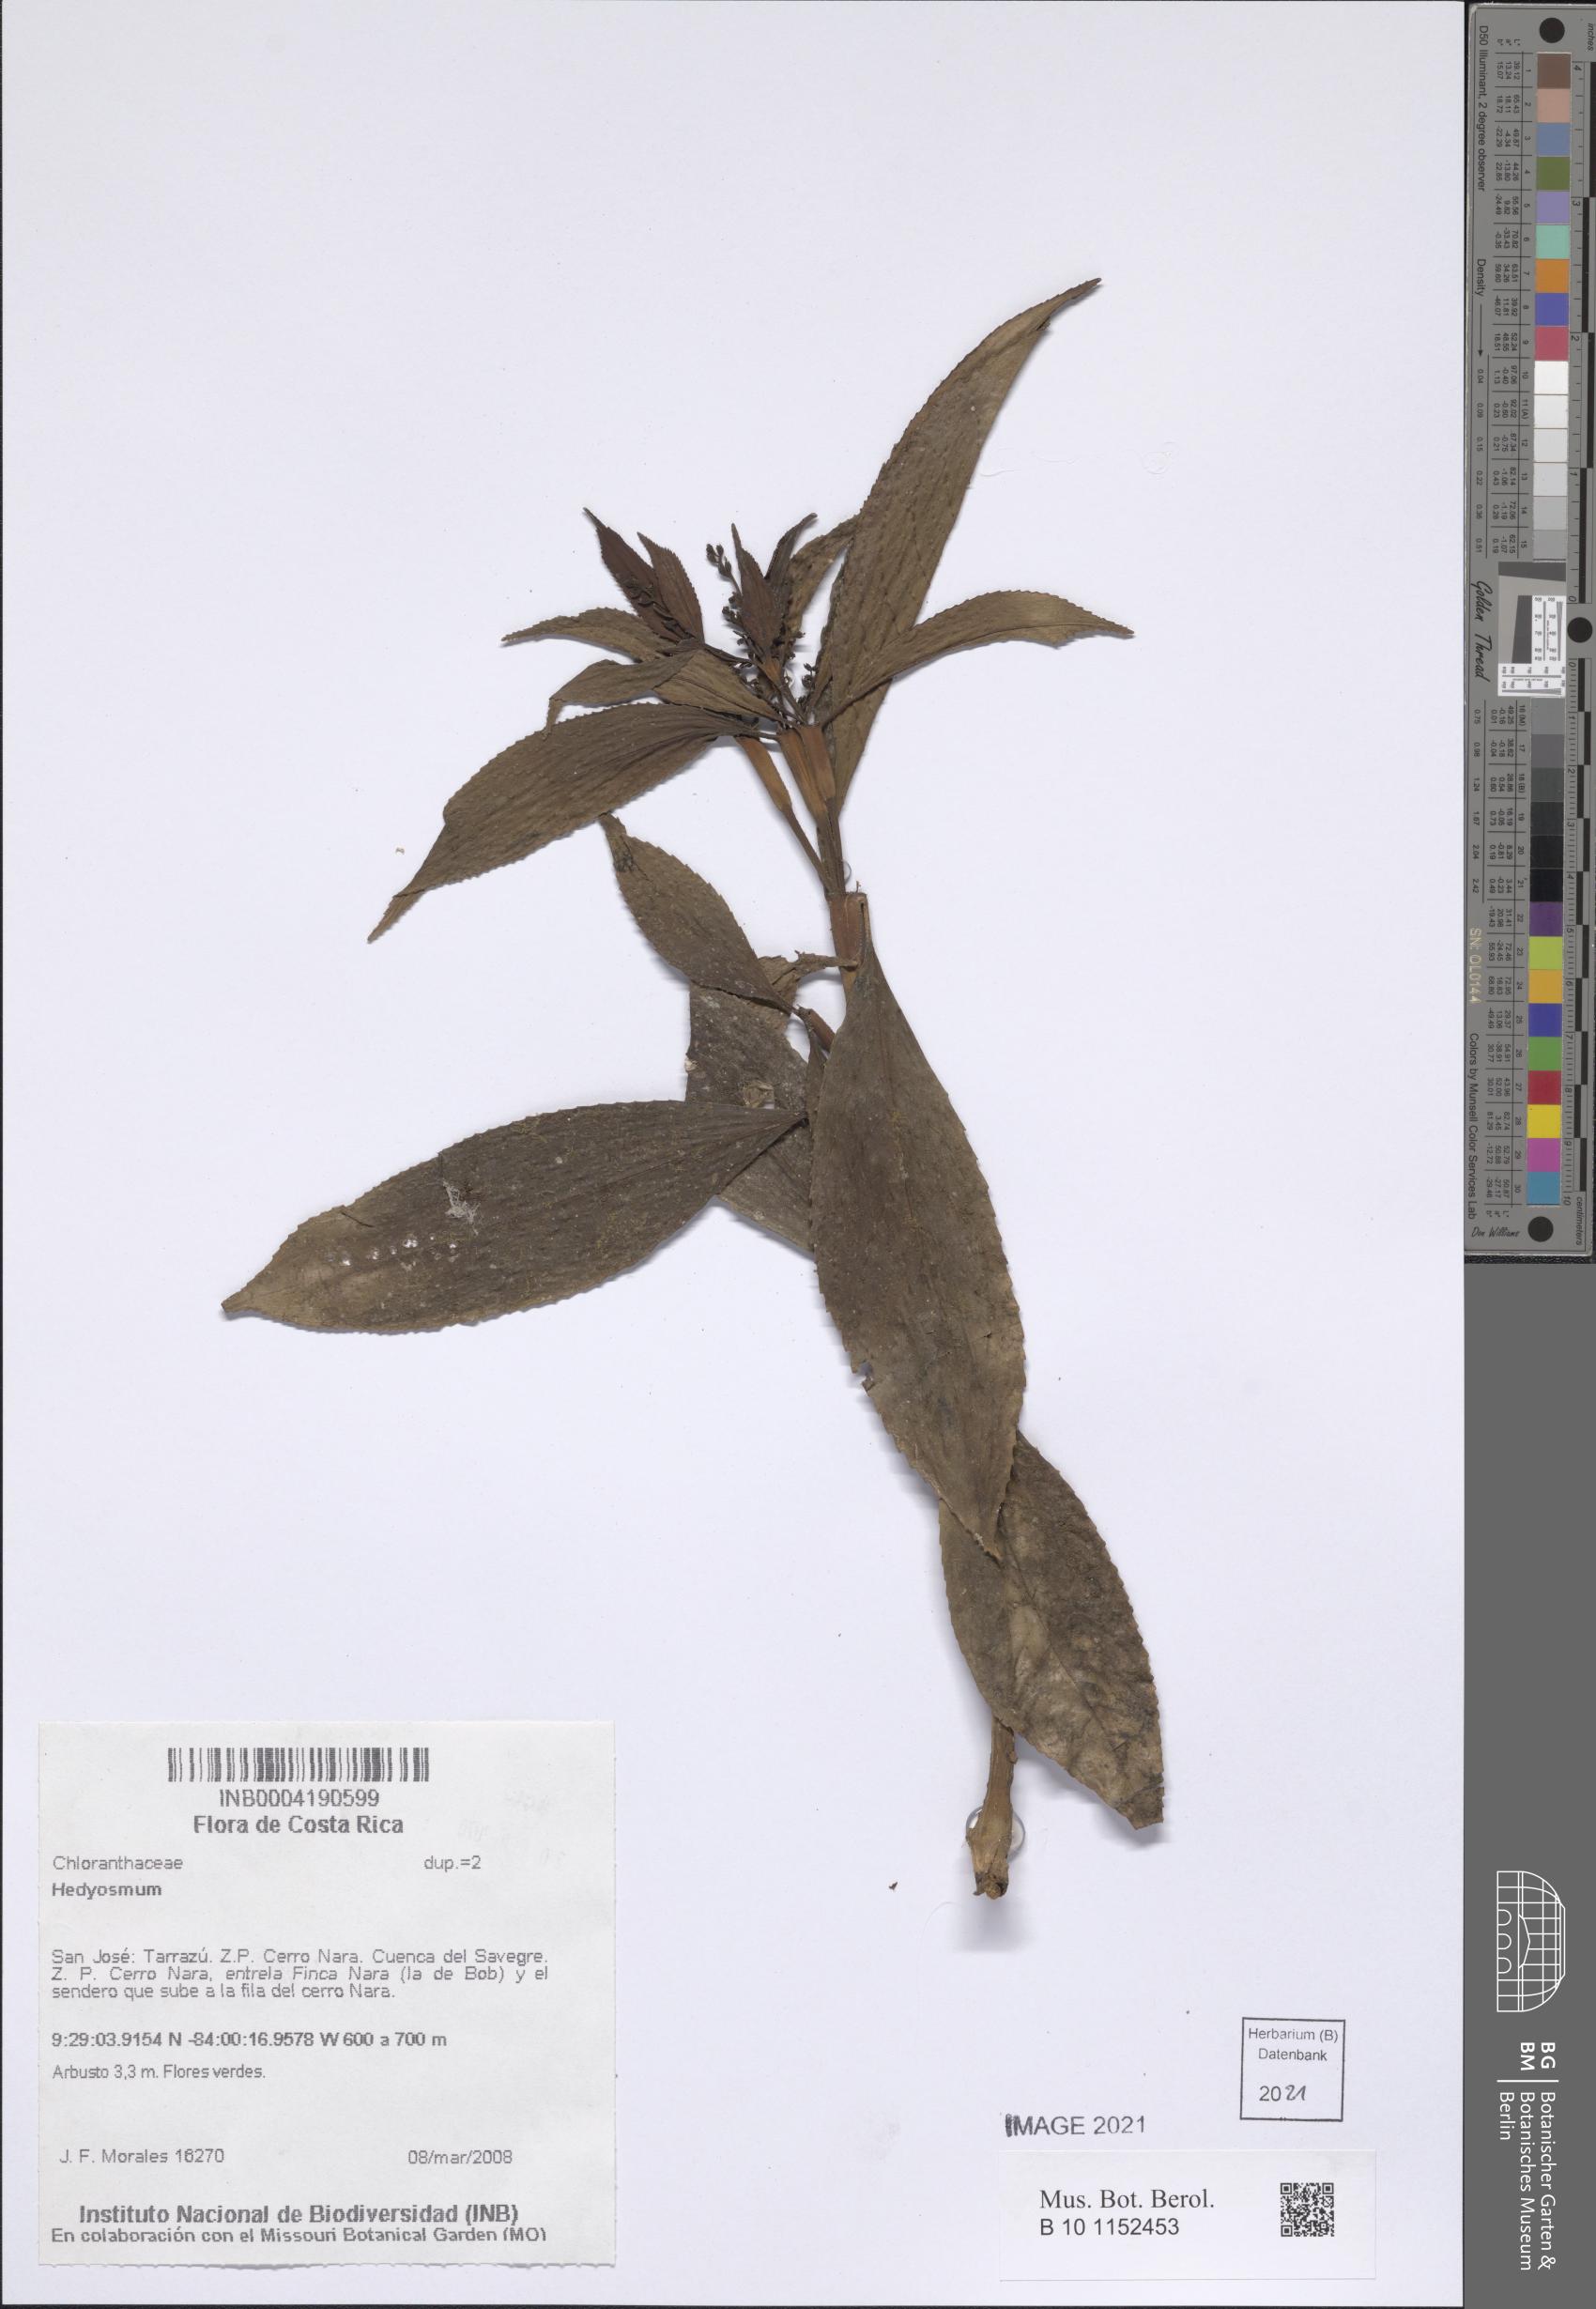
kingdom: Plantae
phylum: Tracheophyta
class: Magnoliopsida
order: Chloranthales
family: Chloranthaceae
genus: Hedyosmum
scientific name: Hedyosmum
